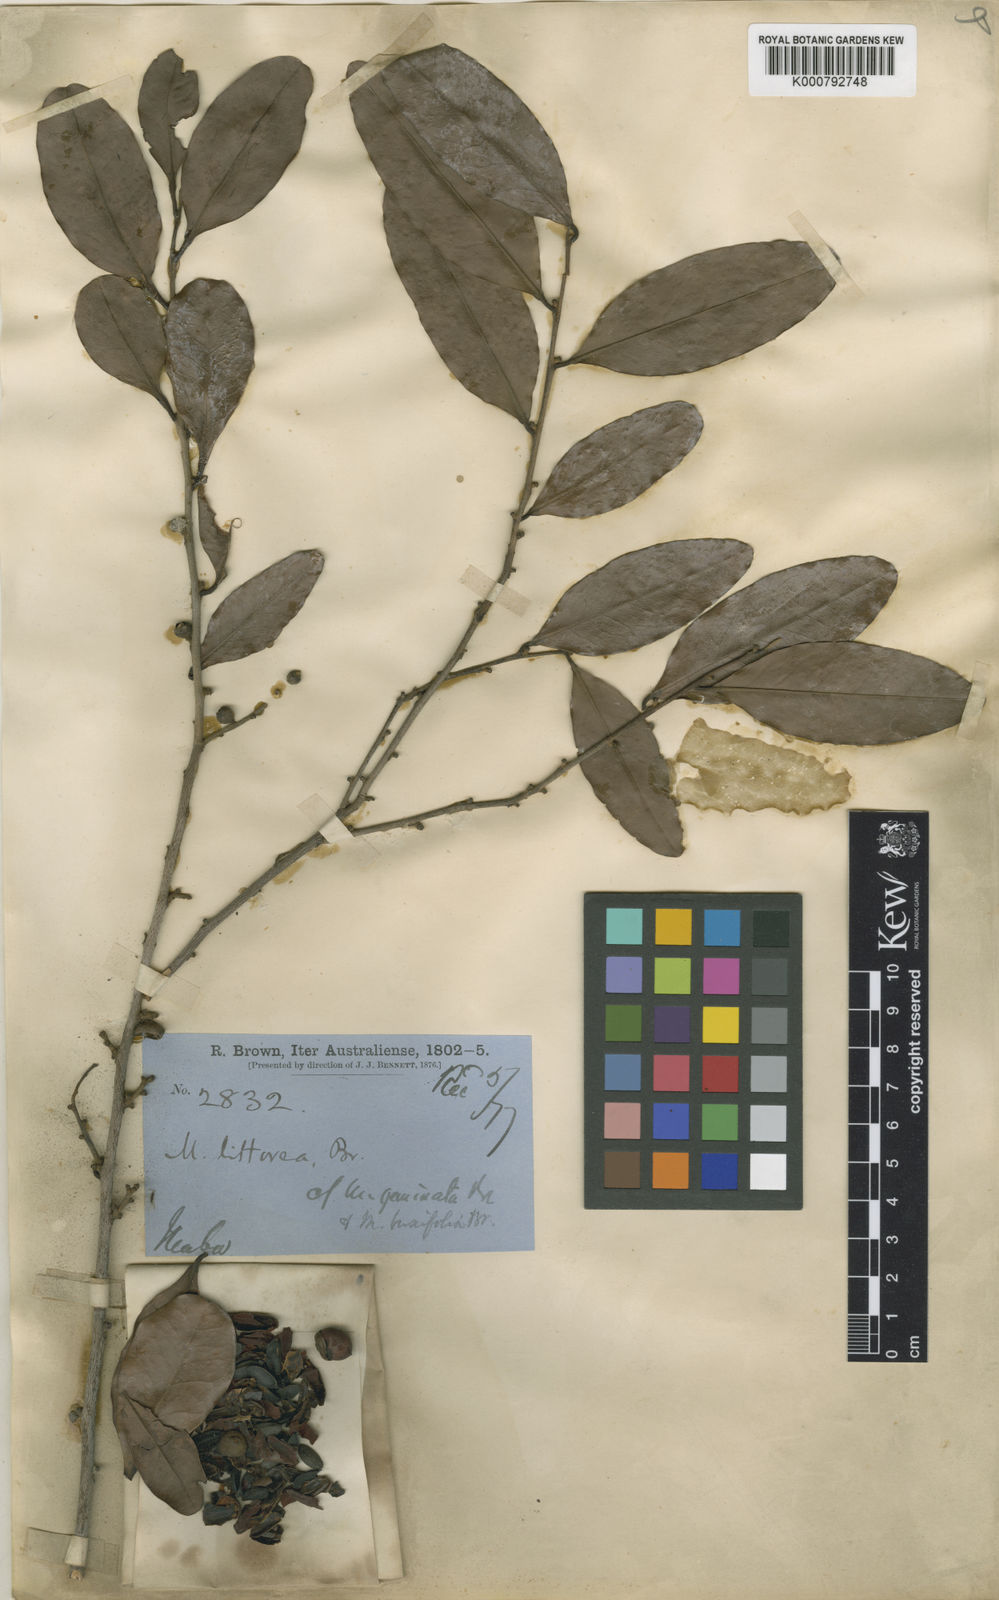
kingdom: Plantae
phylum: Tracheophyta
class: Magnoliopsida
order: Ericales
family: Ebenaceae
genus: Diospyros
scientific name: Diospyros littorea
